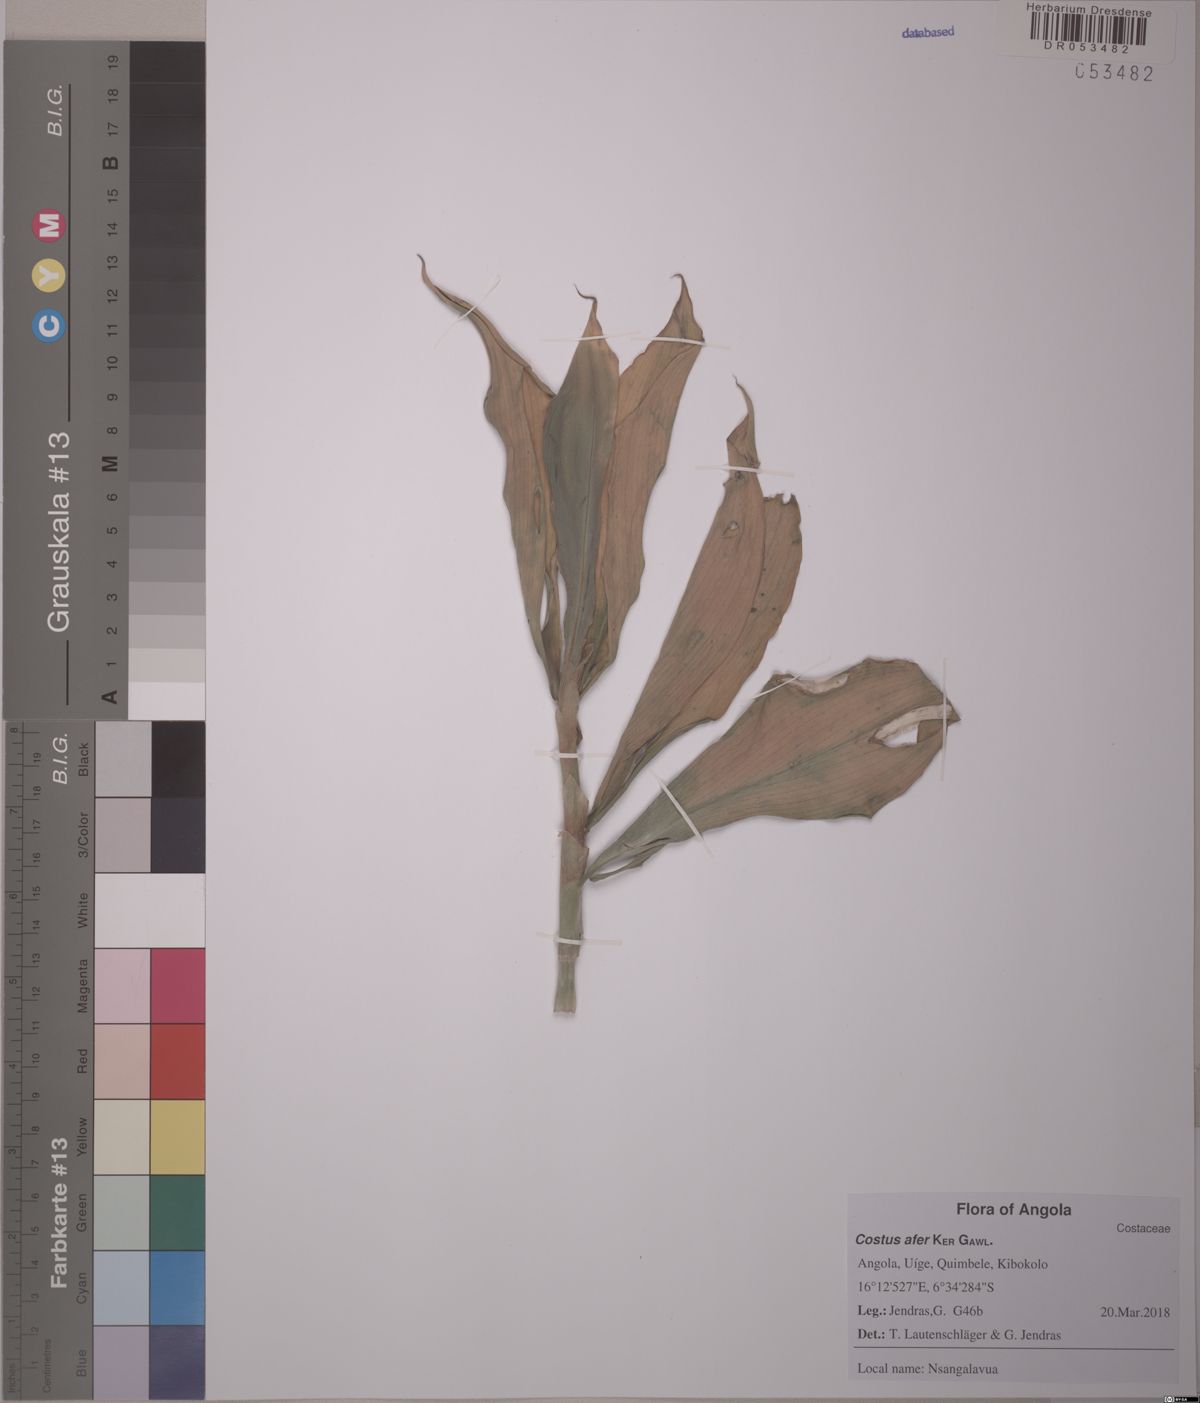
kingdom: Plantae
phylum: Tracheophyta
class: Liliopsida
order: Zingiberales
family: Costaceae
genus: Costus
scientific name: Costus afer
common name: Spiral-ginger
